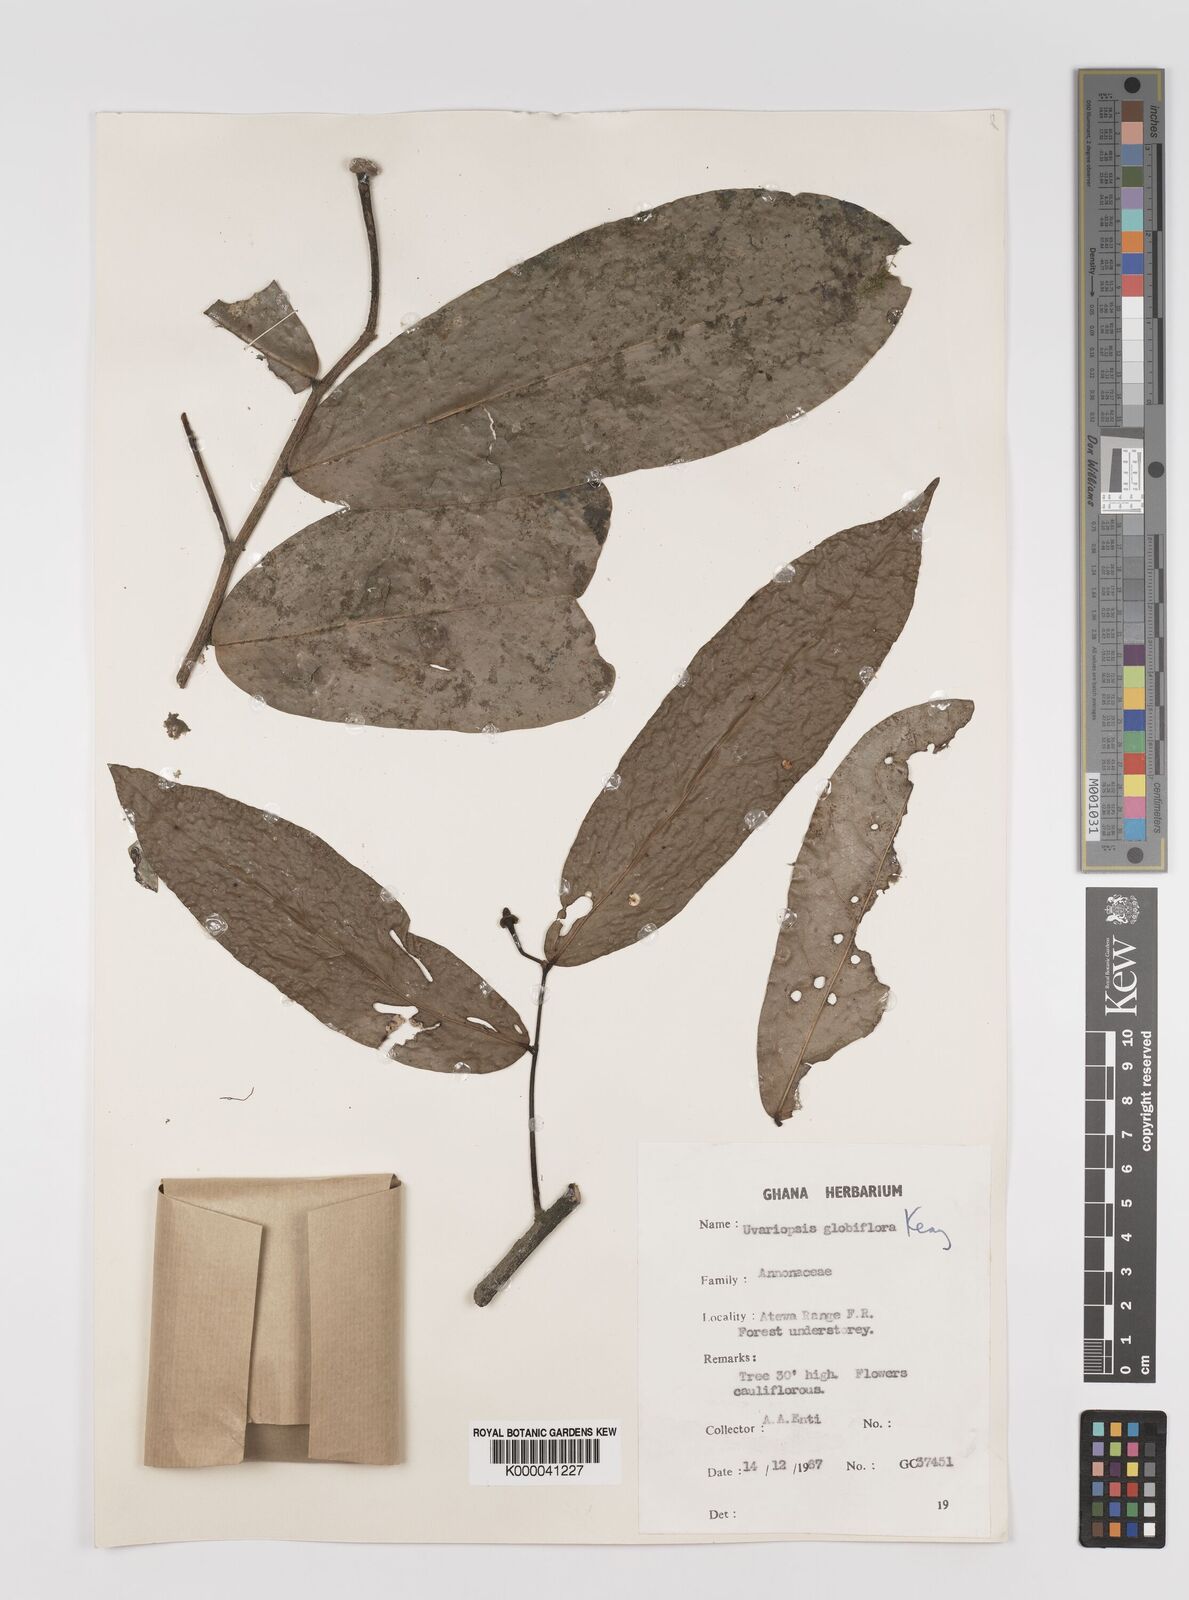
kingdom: Plantae
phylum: Tracheophyta
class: Magnoliopsida
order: Magnoliales
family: Annonaceae
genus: Uvaria
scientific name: Uvaria
